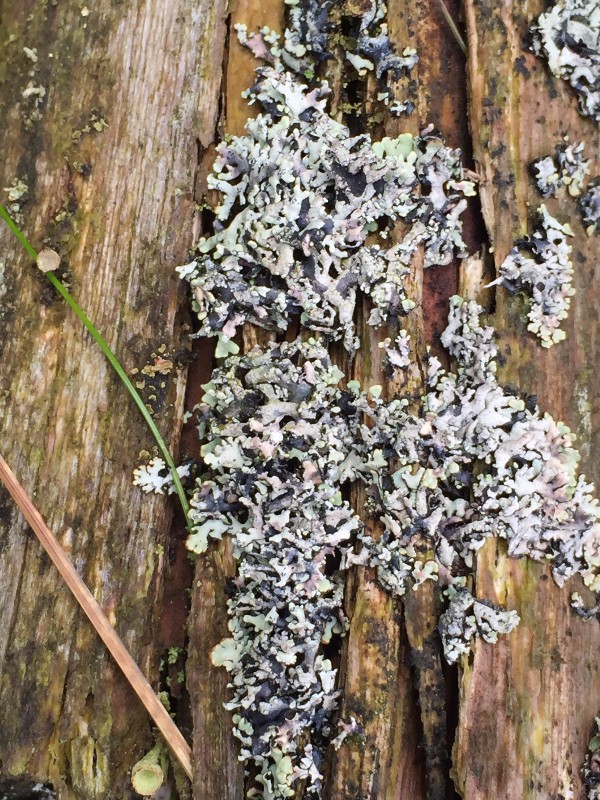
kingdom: Fungi
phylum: Ascomycota
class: Lecanoromycetes
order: Lecanorales
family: Parmeliaceae
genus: Hypogymnia
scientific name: Hypogymnia physodes
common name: almindelig kvistlav
